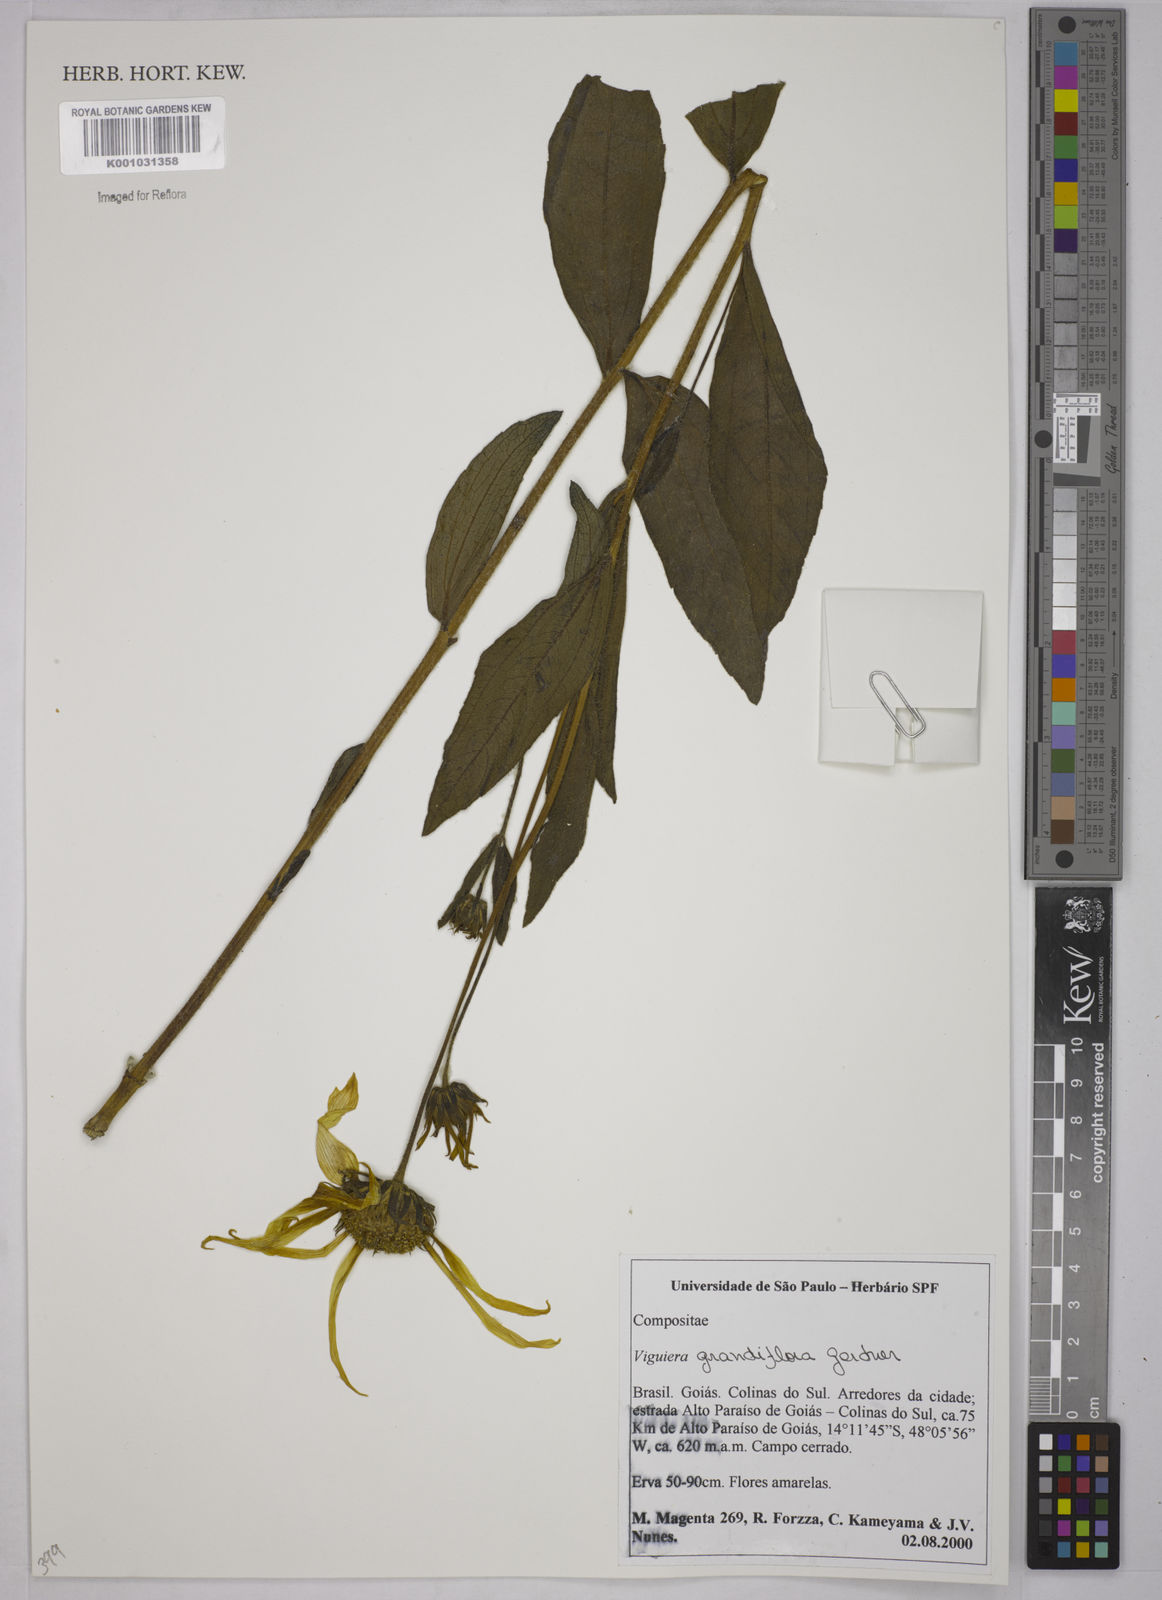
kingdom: Plantae
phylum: Tracheophyta
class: Magnoliopsida
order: Asterales
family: Asteraceae
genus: Aldama
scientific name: Aldama grandiflora
